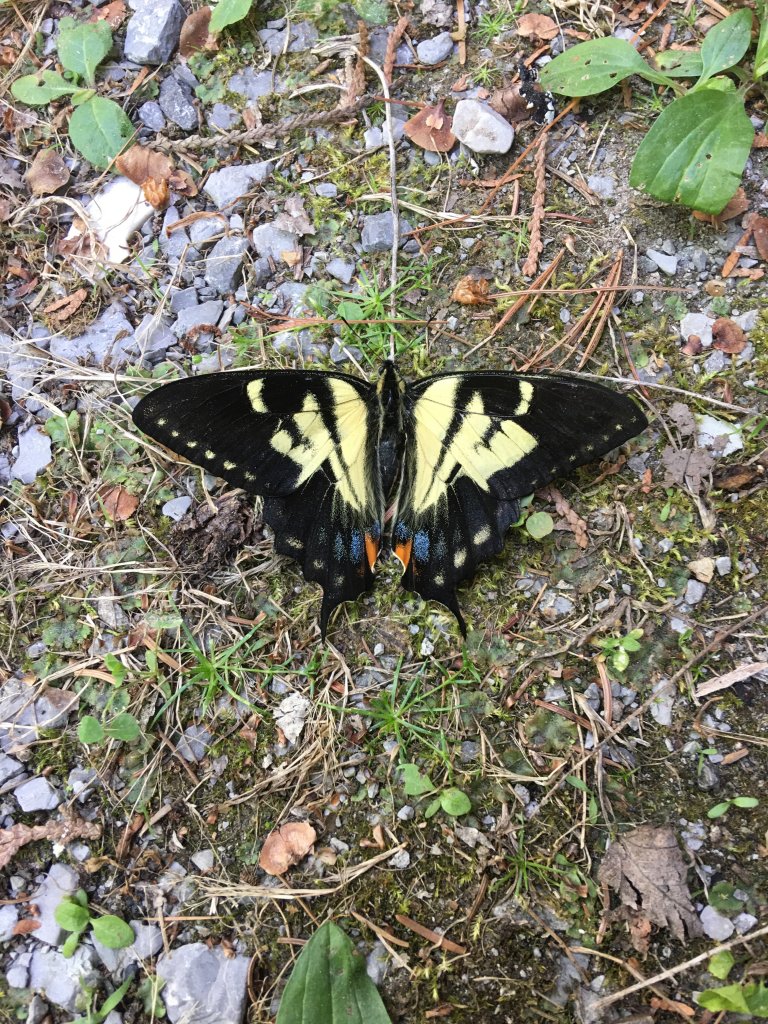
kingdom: Animalia
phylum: Arthropoda
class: Insecta
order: Lepidoptera
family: Papilionidae
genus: Pterourus
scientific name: Pterourus canadensis
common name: Canadian Tiger Swallowtail
